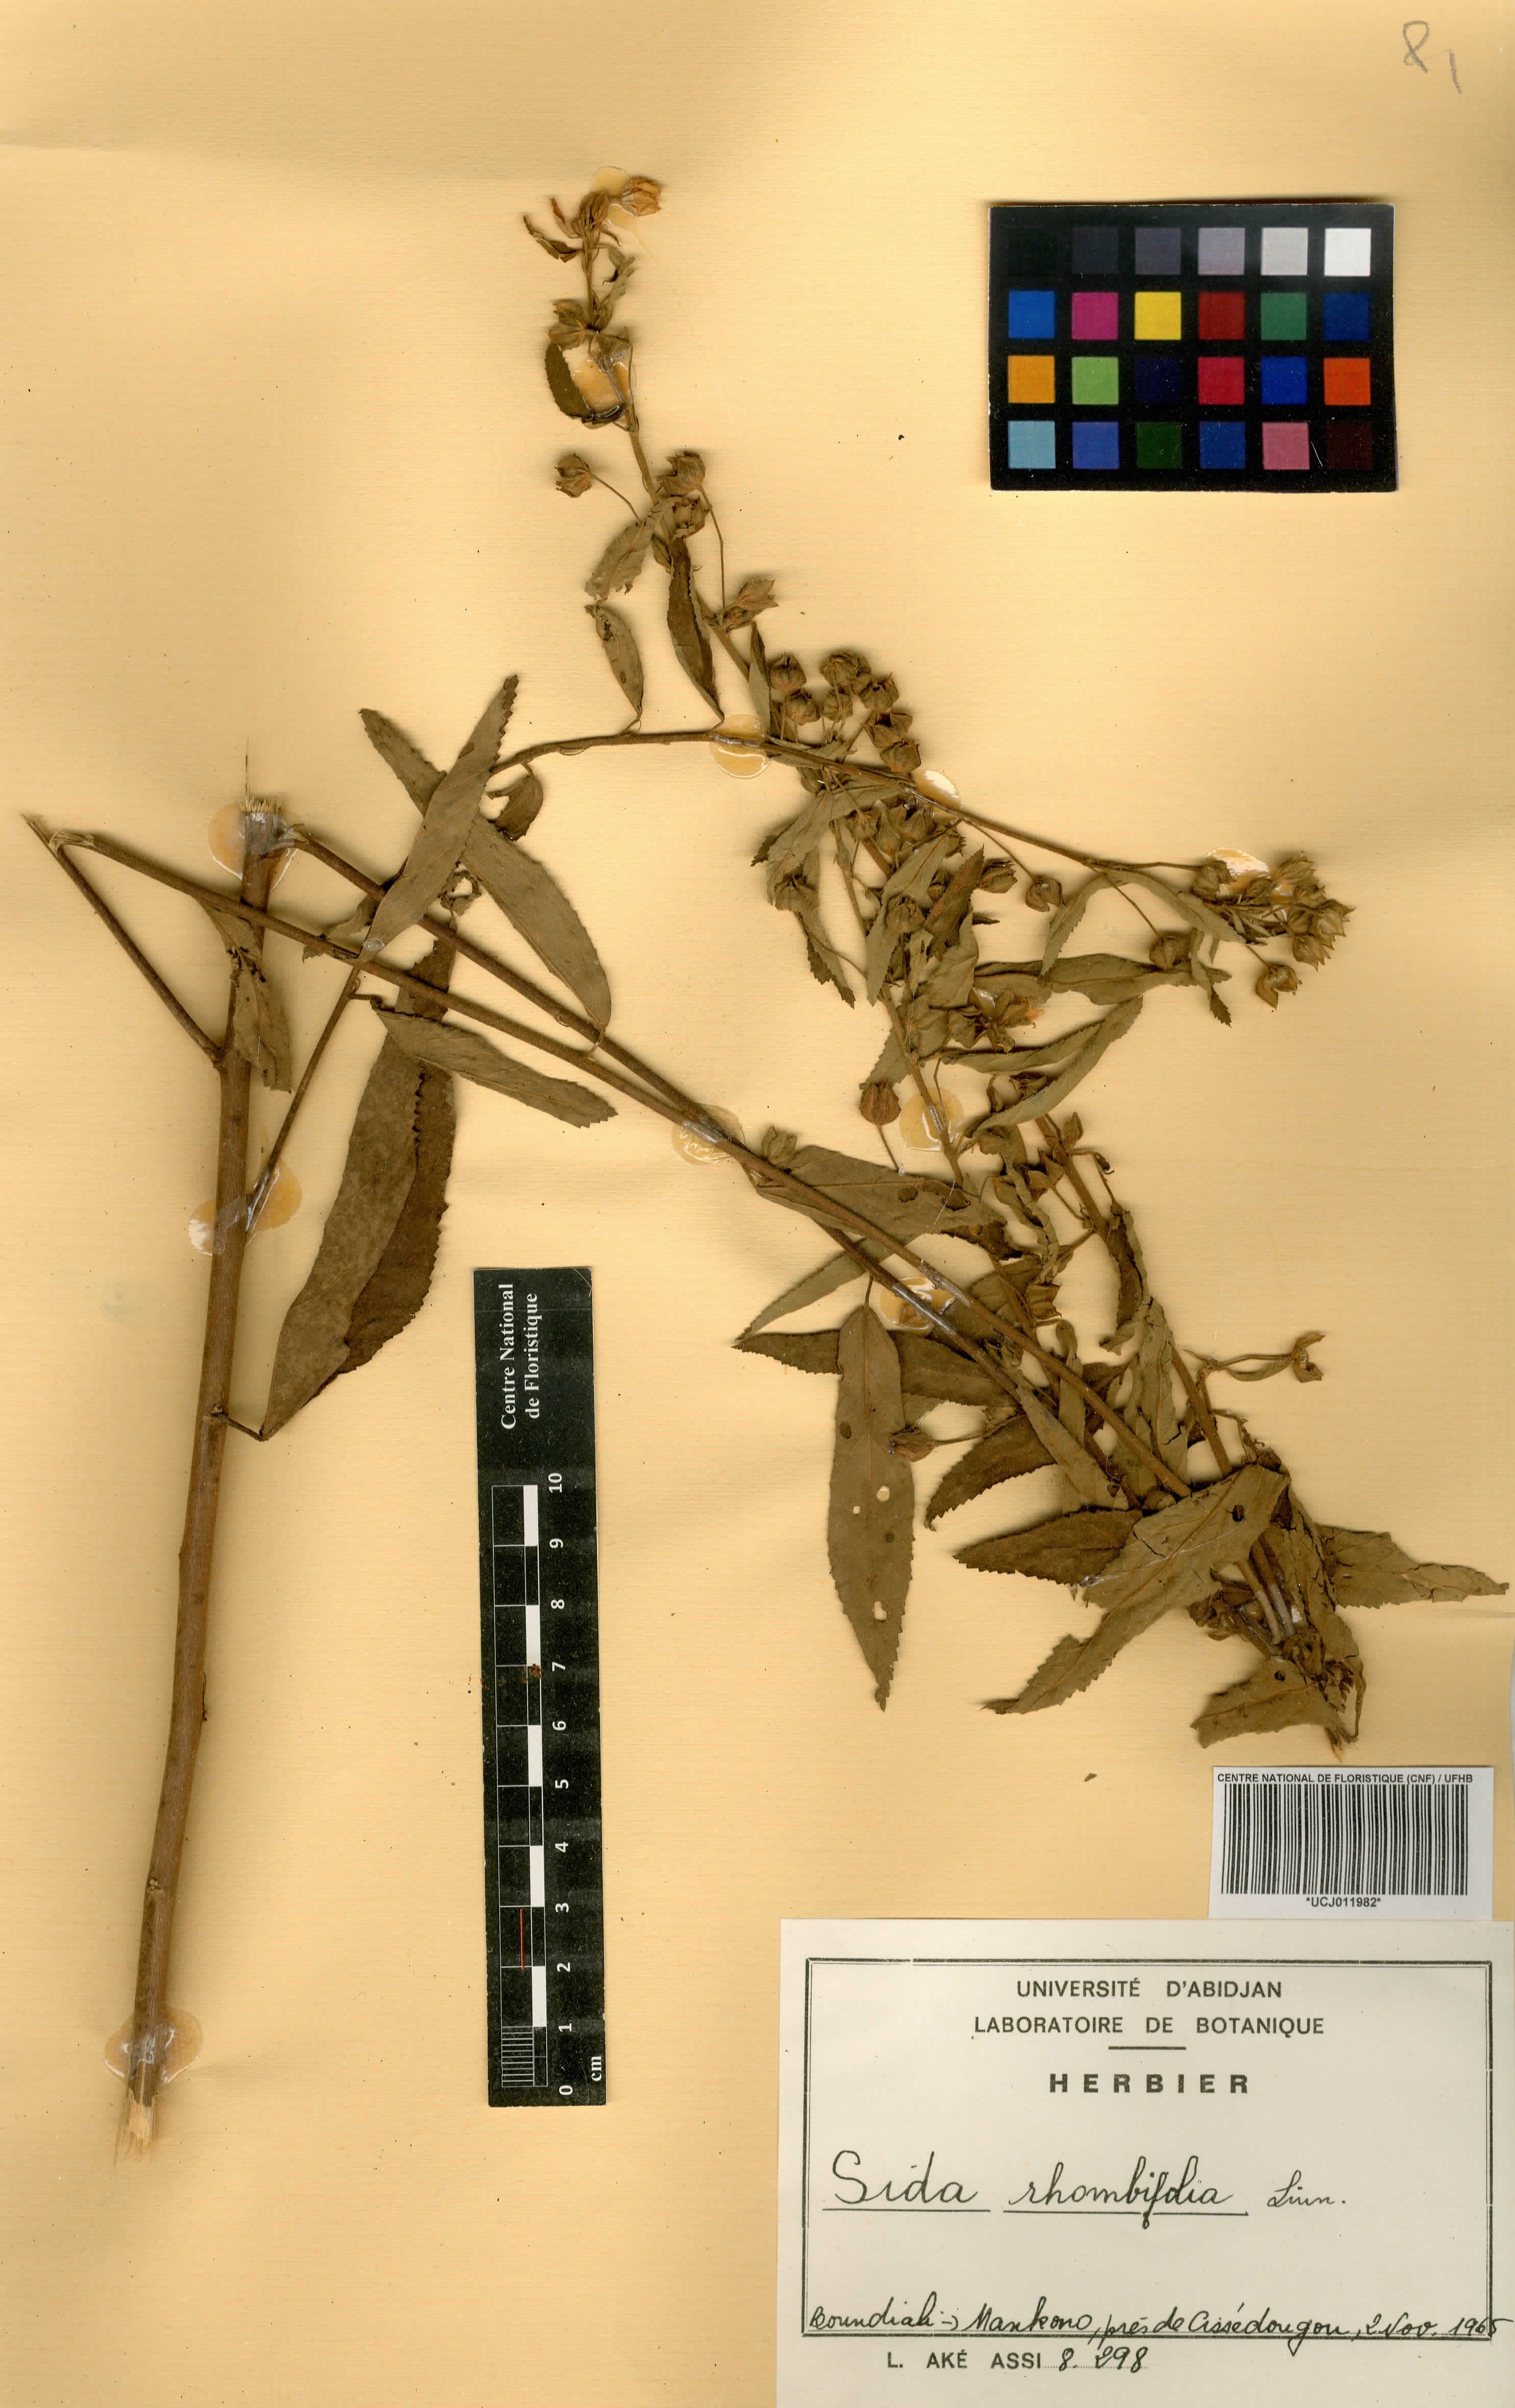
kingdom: Plantae
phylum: Tracheophyta
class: Magnoliopsida
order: Malvales
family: Malvaceae
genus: Sida
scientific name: Sida rhombifolia
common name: Queensland-hemp
